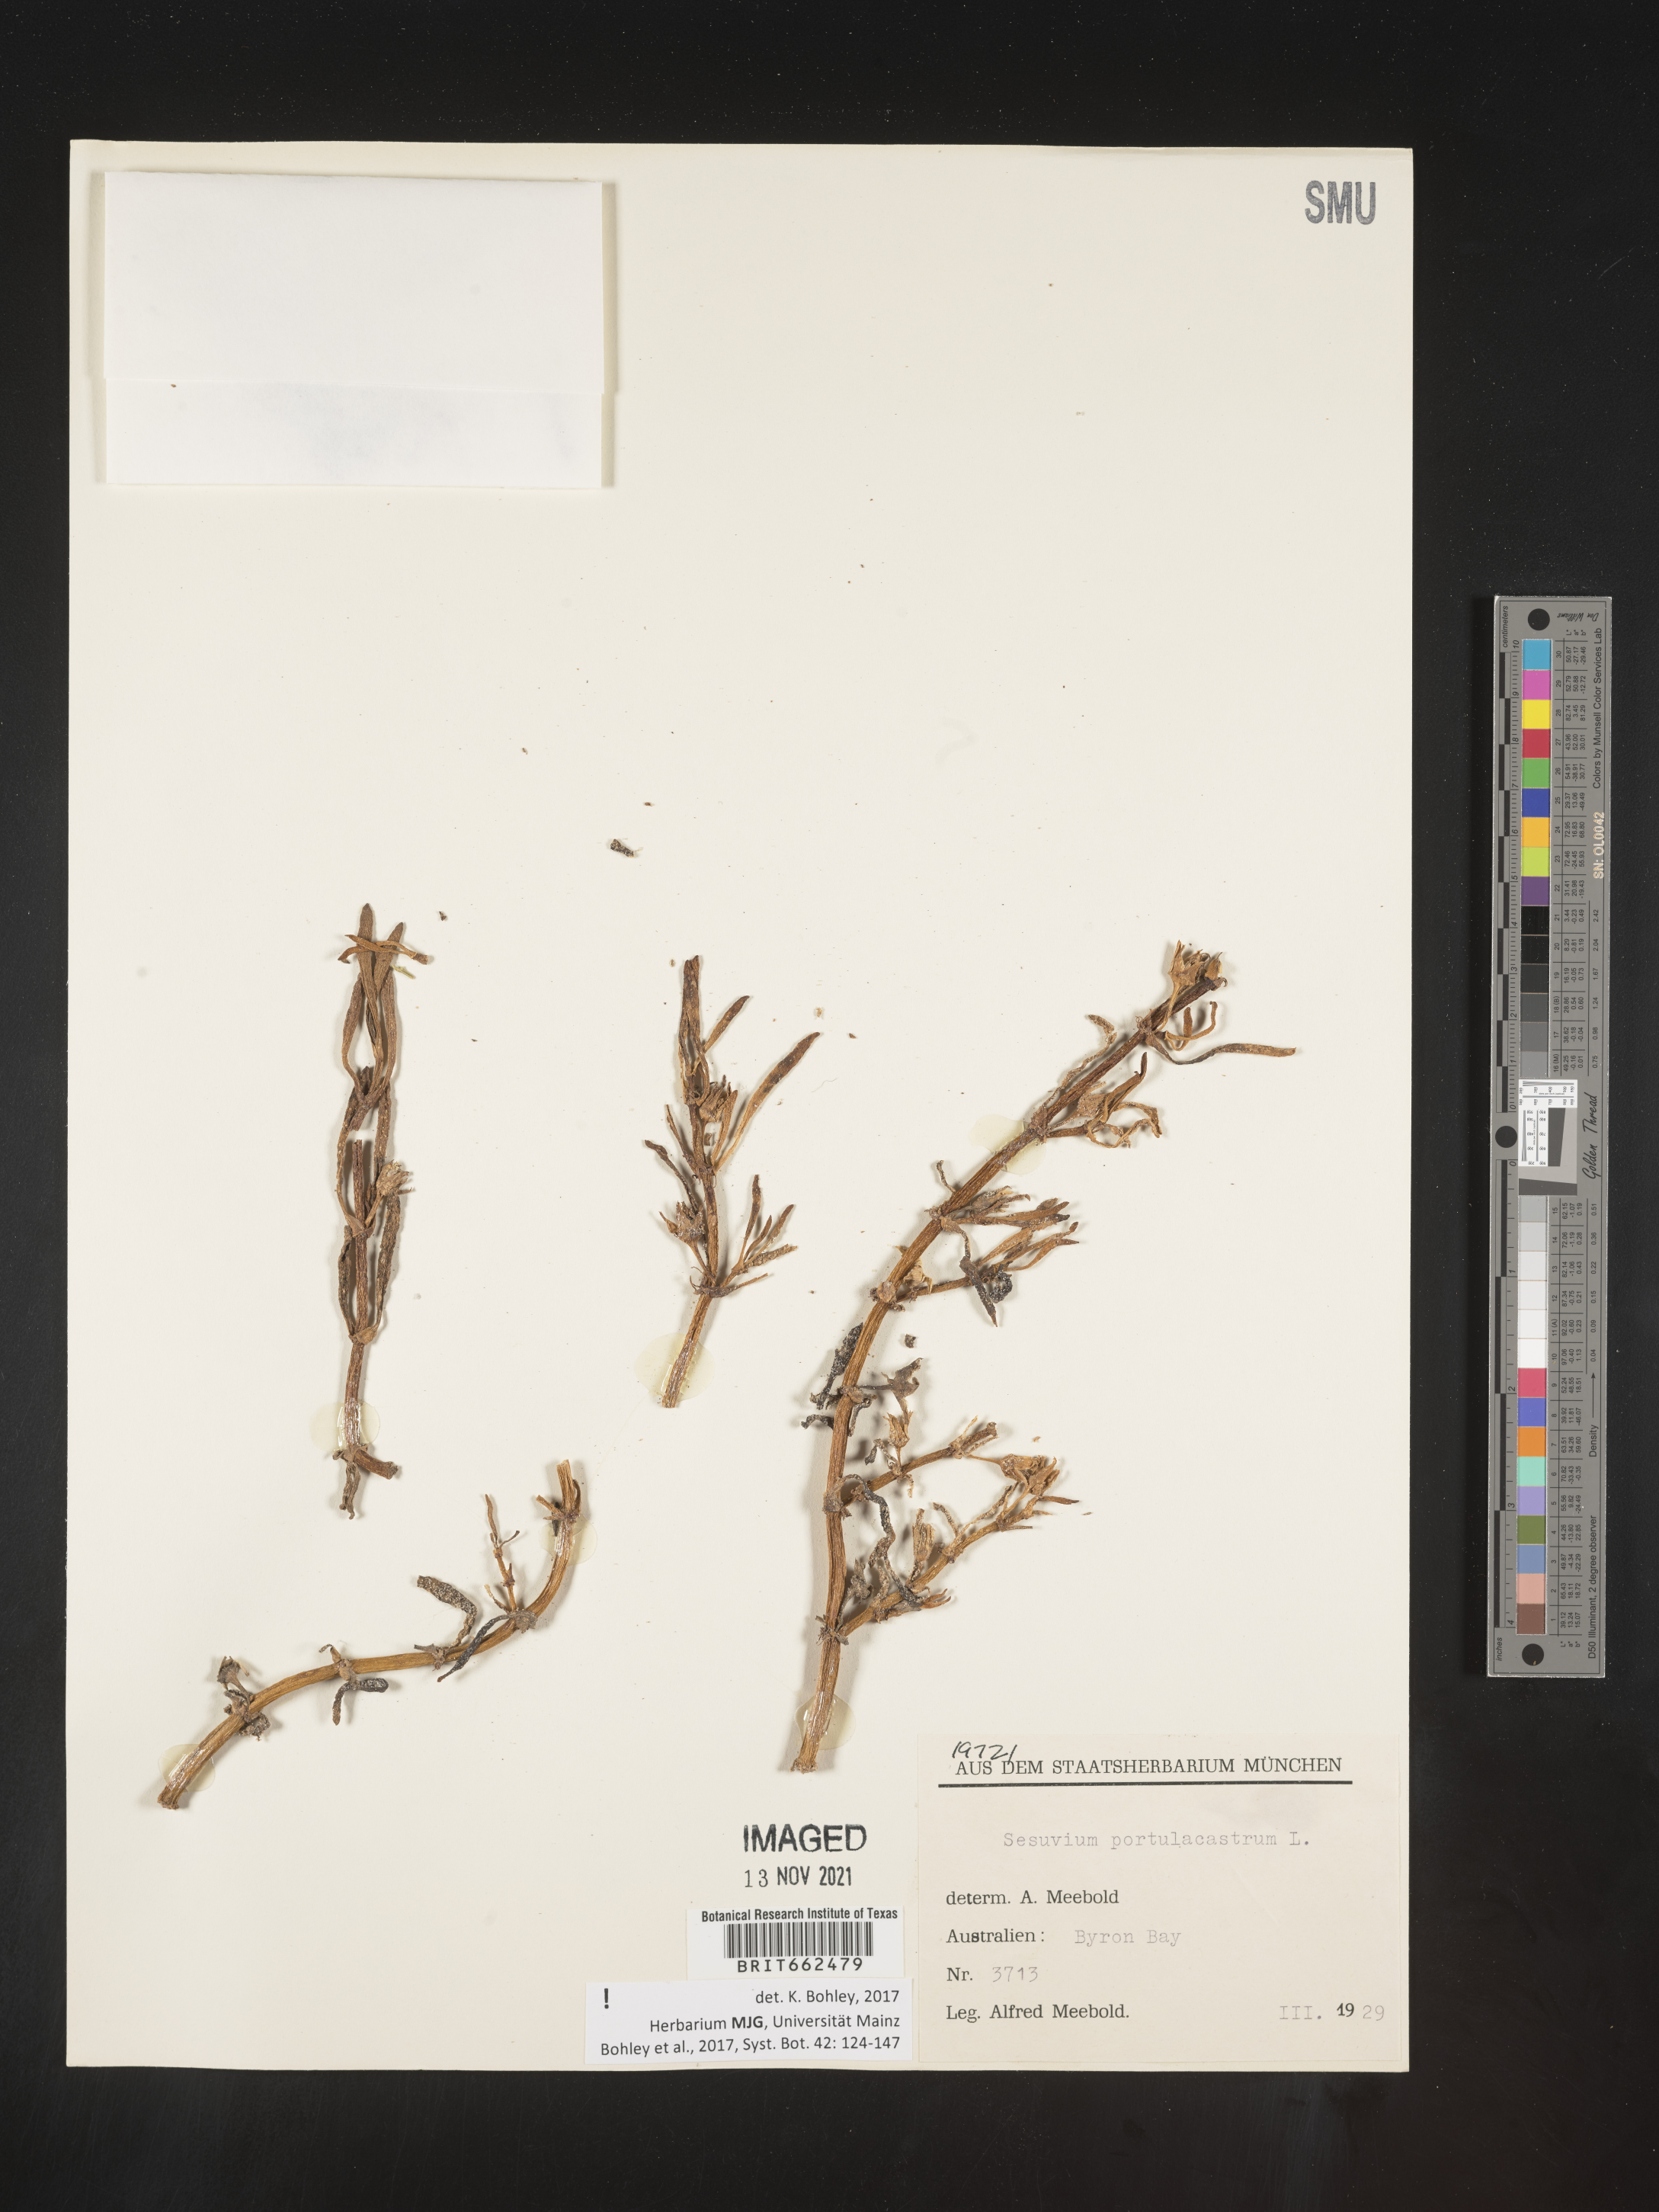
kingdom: Plantae
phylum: Tracheophyta
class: Magnoliopsida
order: Caryophyllales
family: Aizoaceae
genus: Sesuvium
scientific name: Sesuvium
